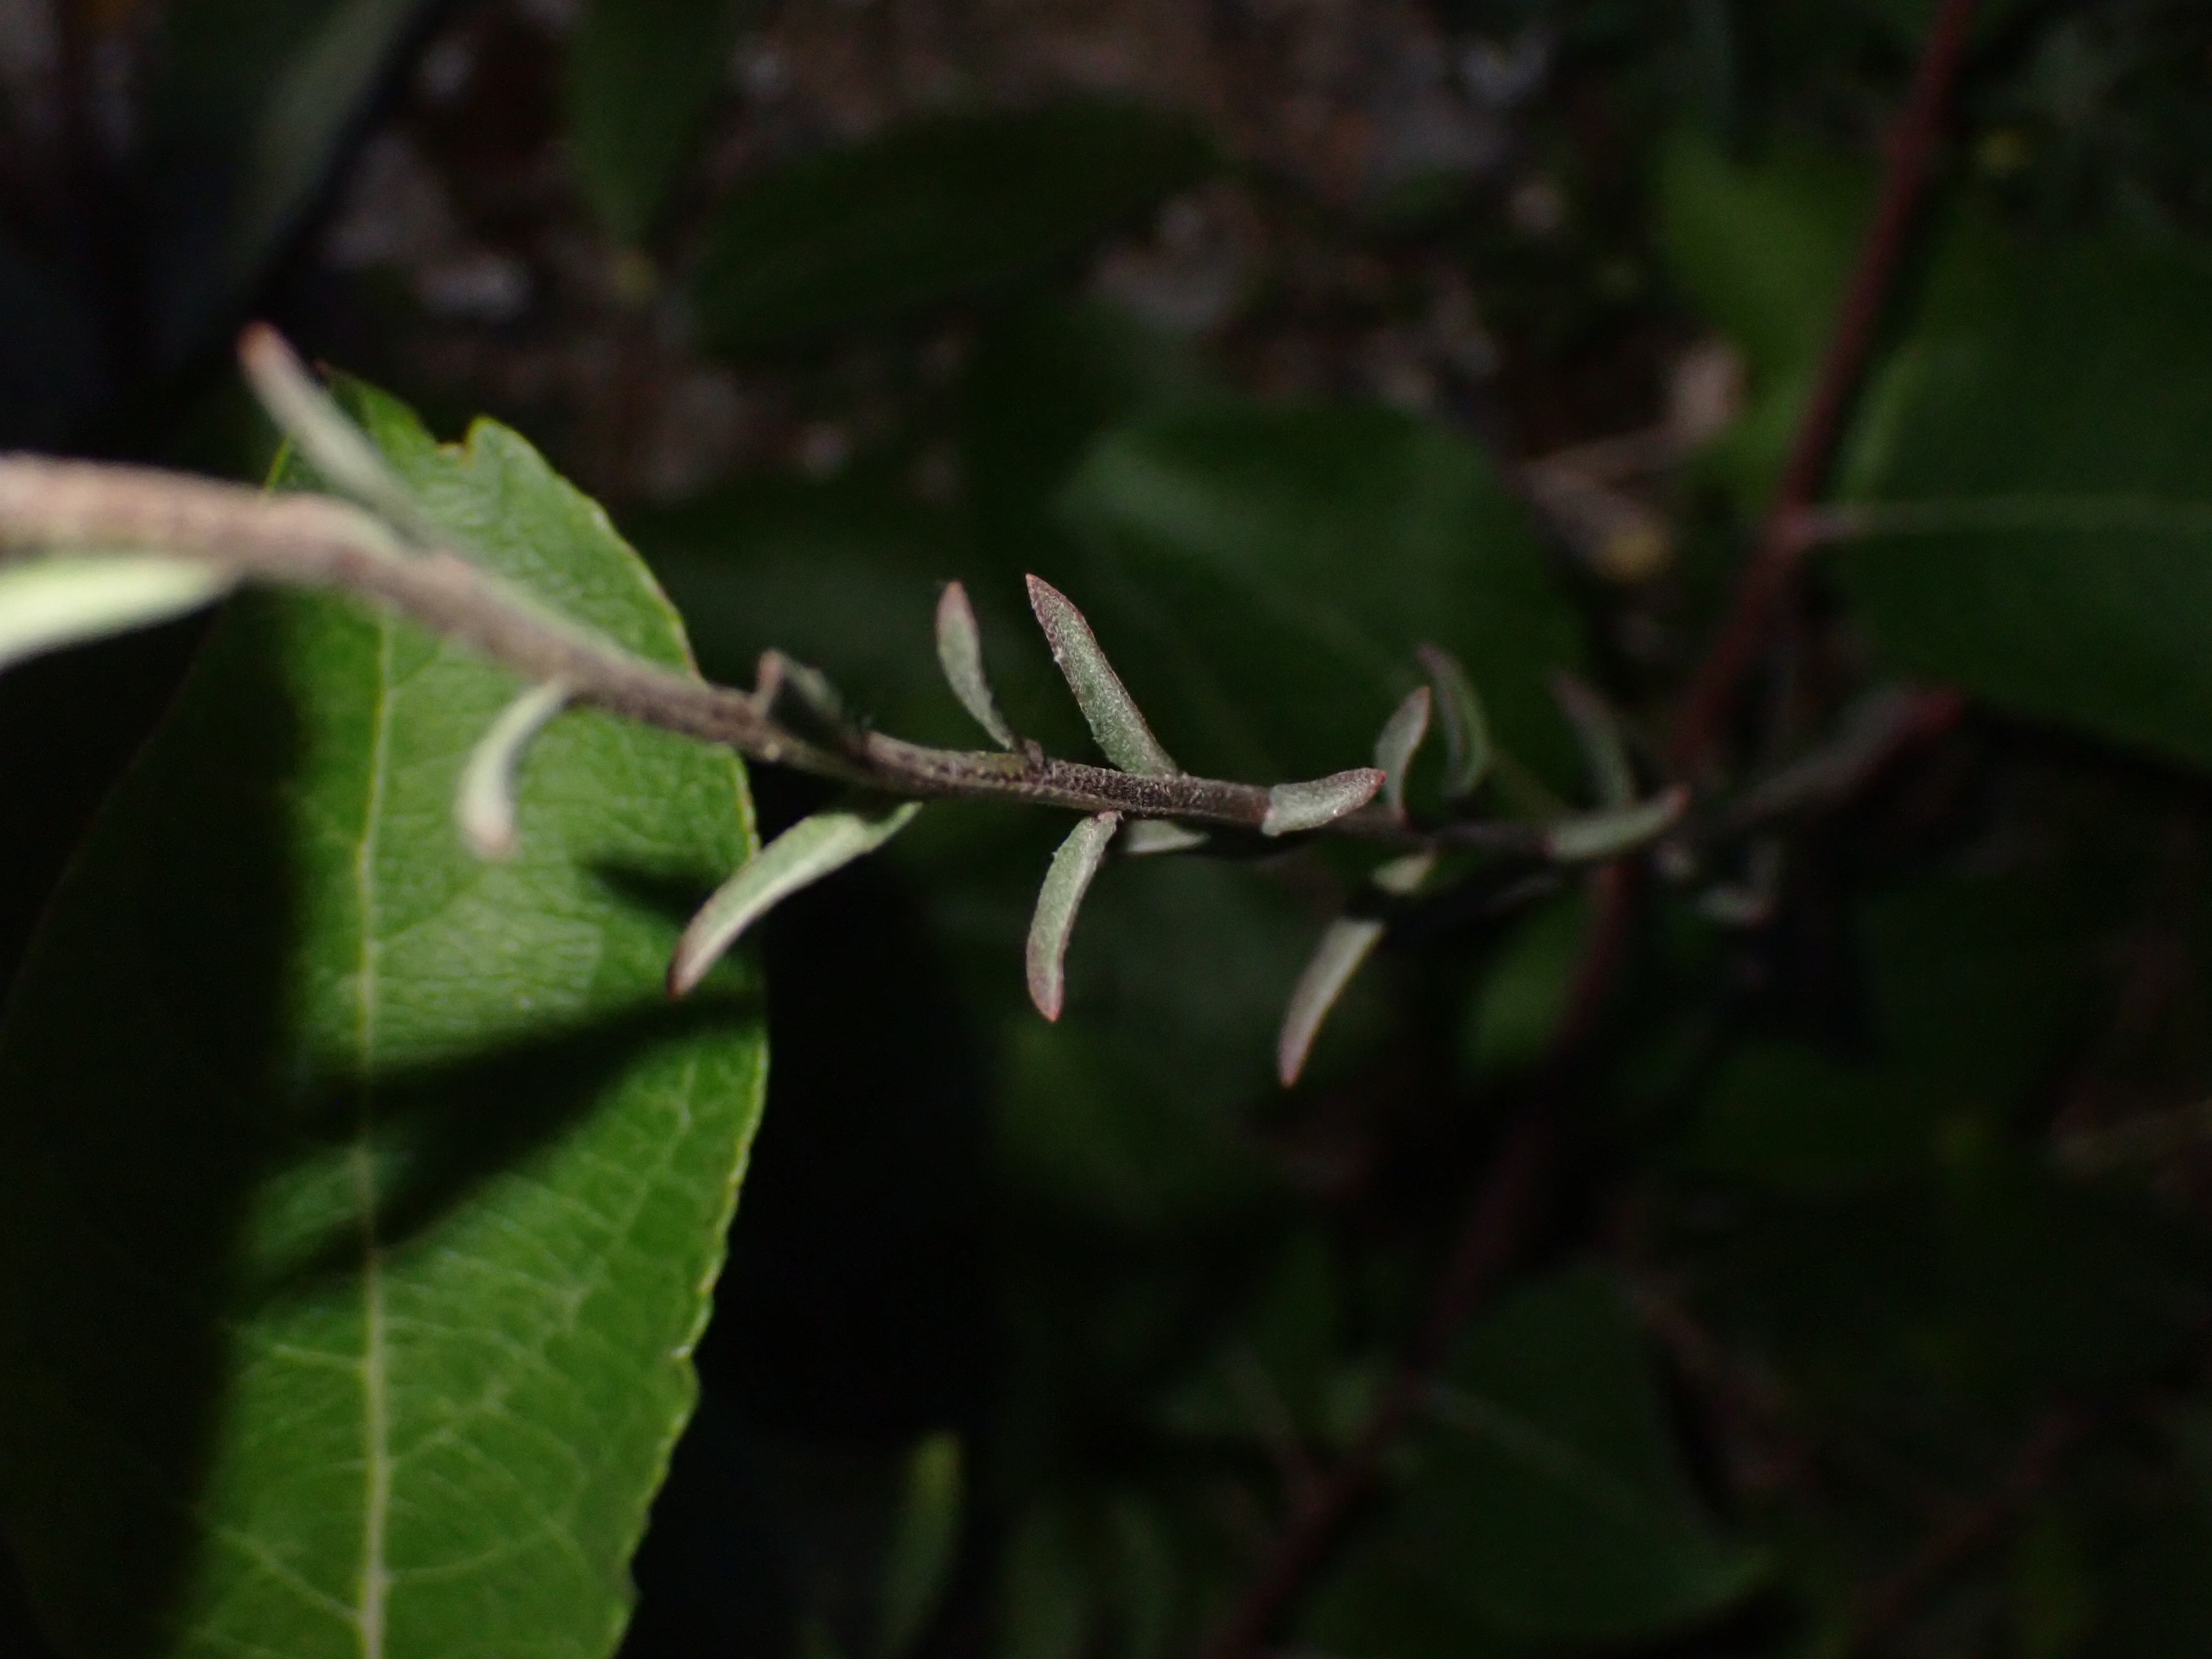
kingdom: Plantae
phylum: Tracheophyta
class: Magnoliopsida
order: Brassicales
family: Brassicaceae
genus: Erysimum
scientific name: Erysimum marschallianum
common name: Hård hjørneklap
